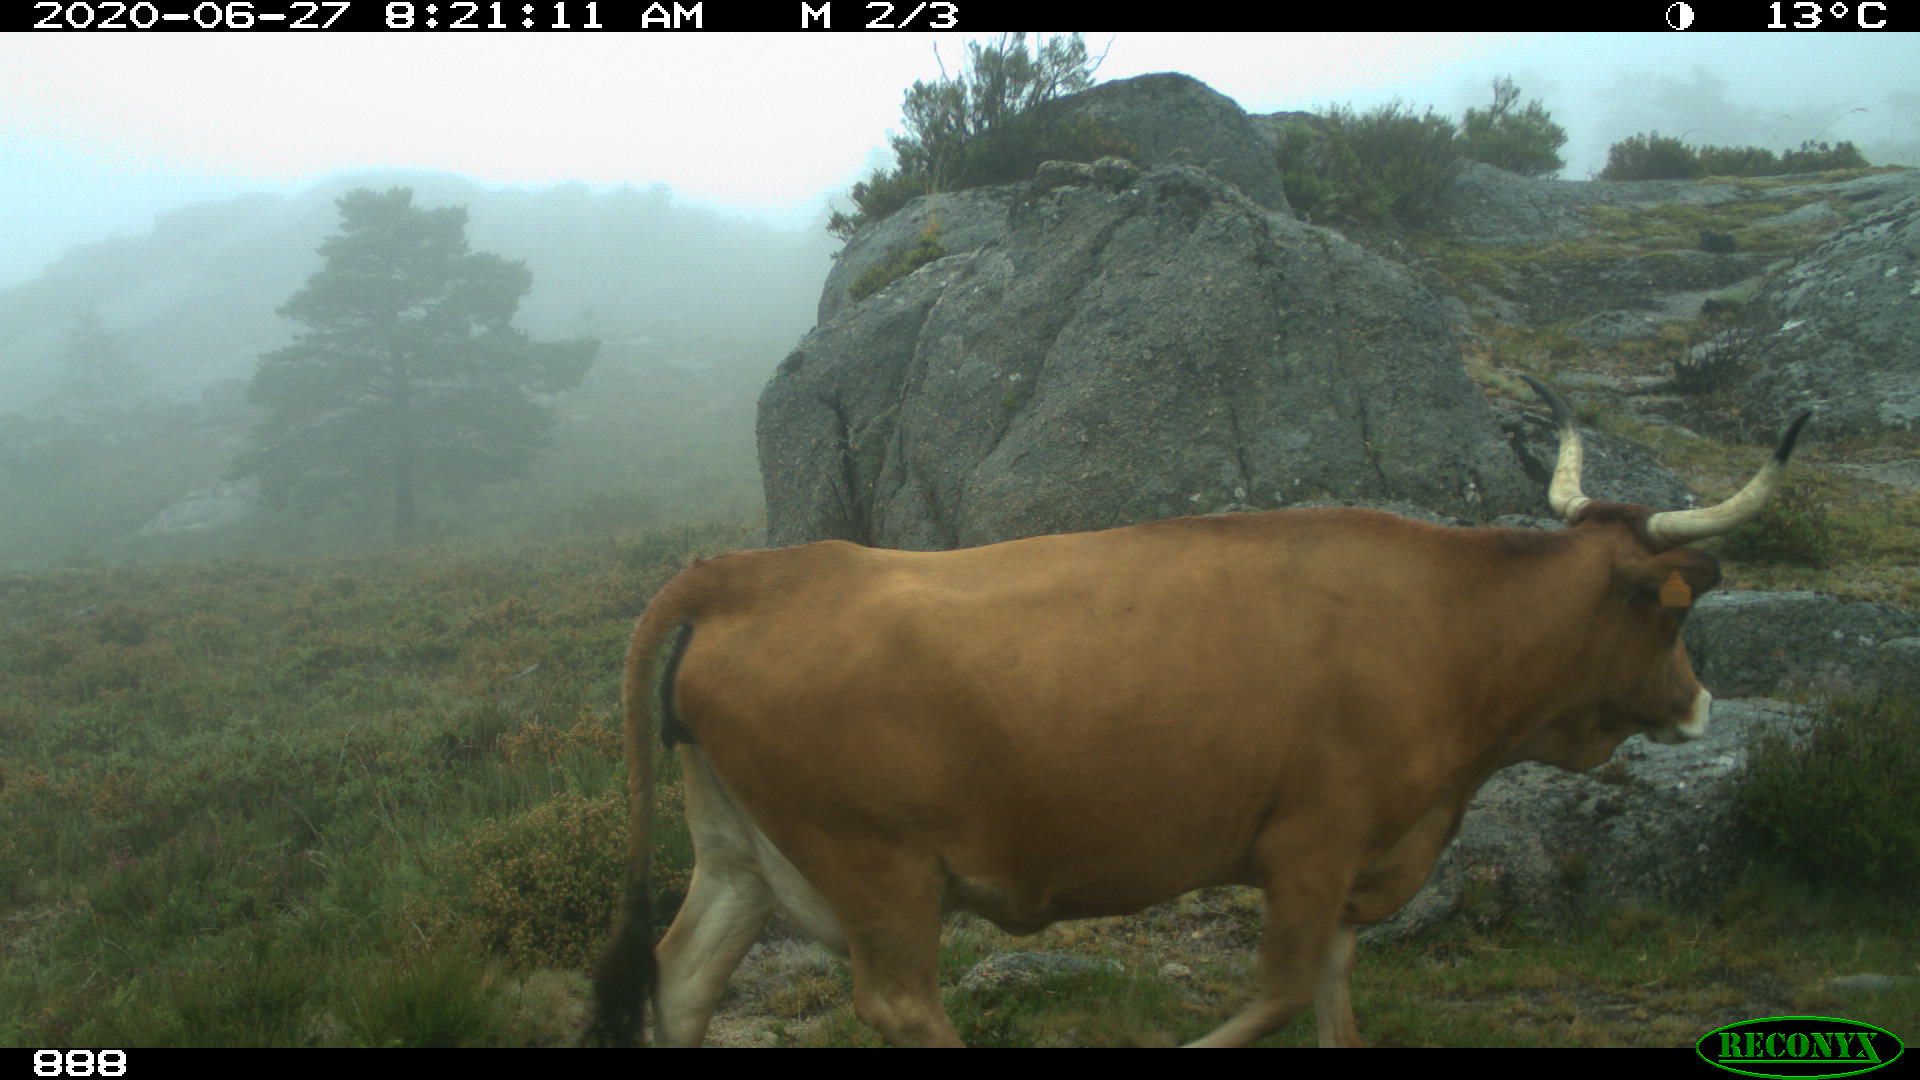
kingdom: Animalia
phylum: Chordata
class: Mammalia
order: Artiodactyla
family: Bovidae
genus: Bos
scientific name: Bos taurus
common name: Domesticated cattle
